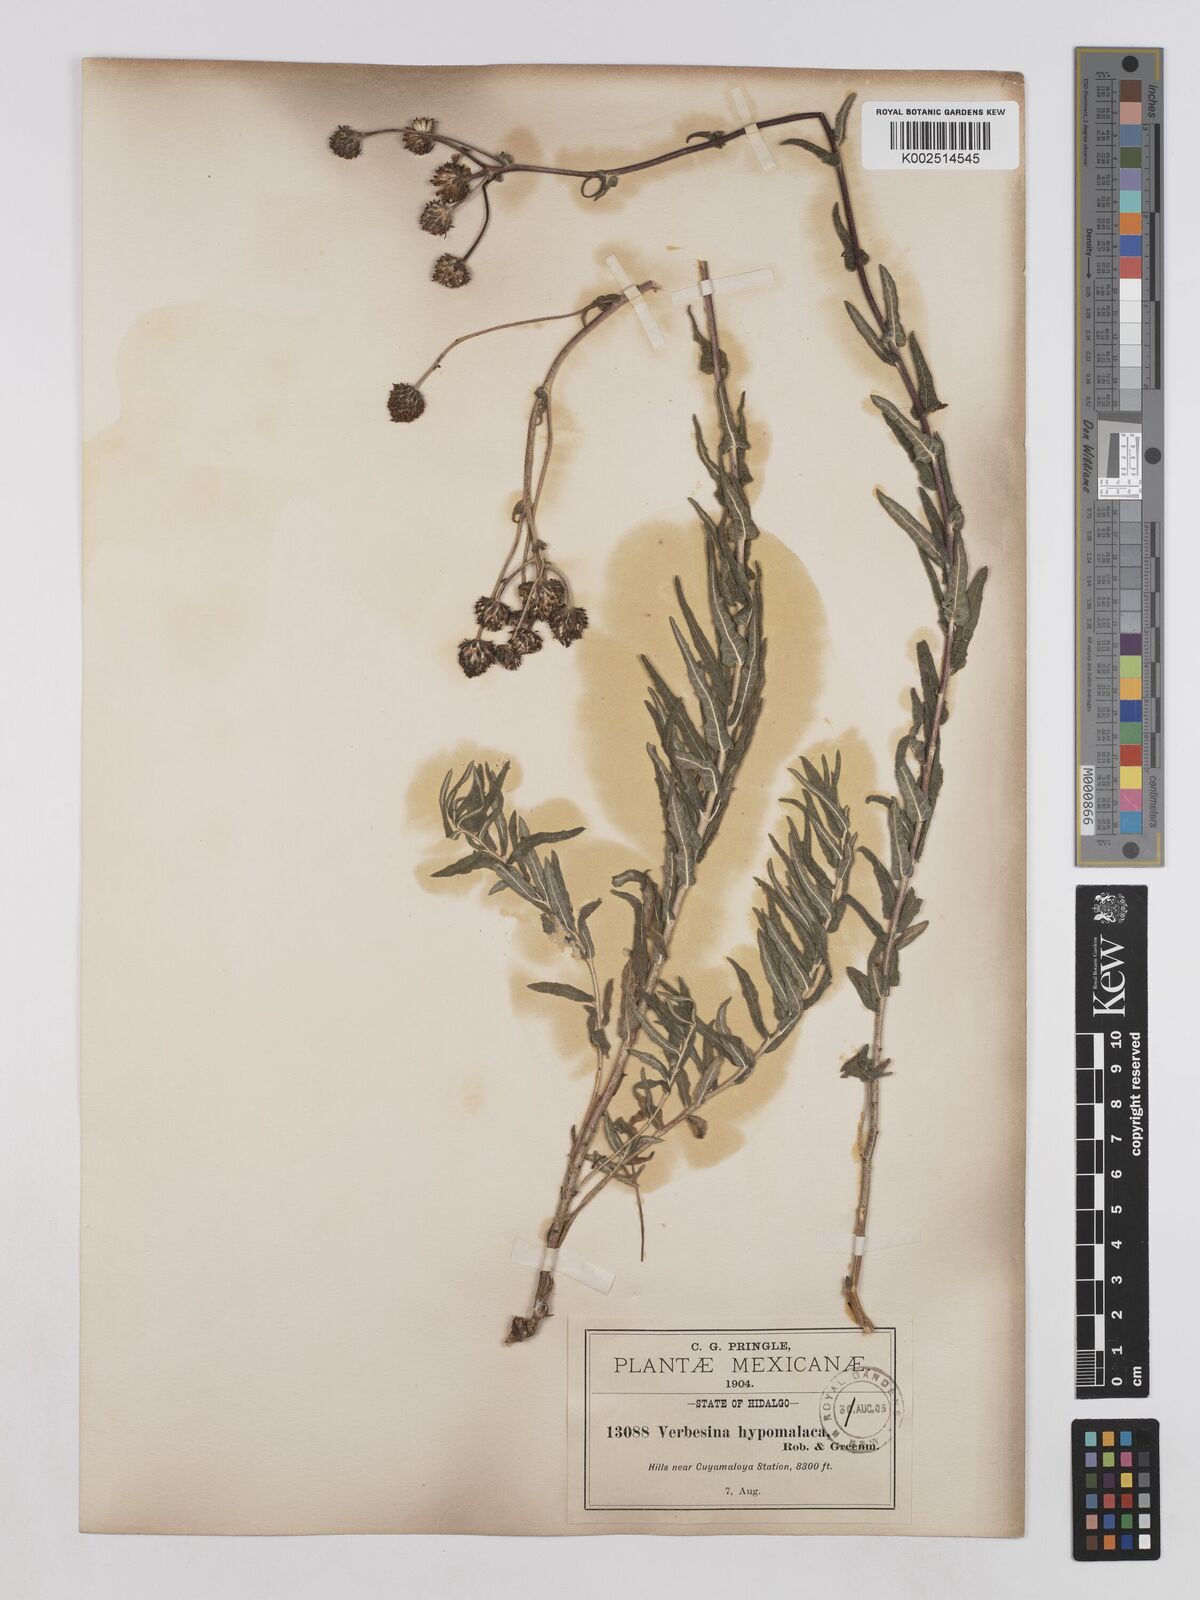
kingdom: Plantae
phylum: Tracheophyta
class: Magnoliopsida
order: Asterales
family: Asteraceae
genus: Verbesina
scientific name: Verbesina hypomalaca
